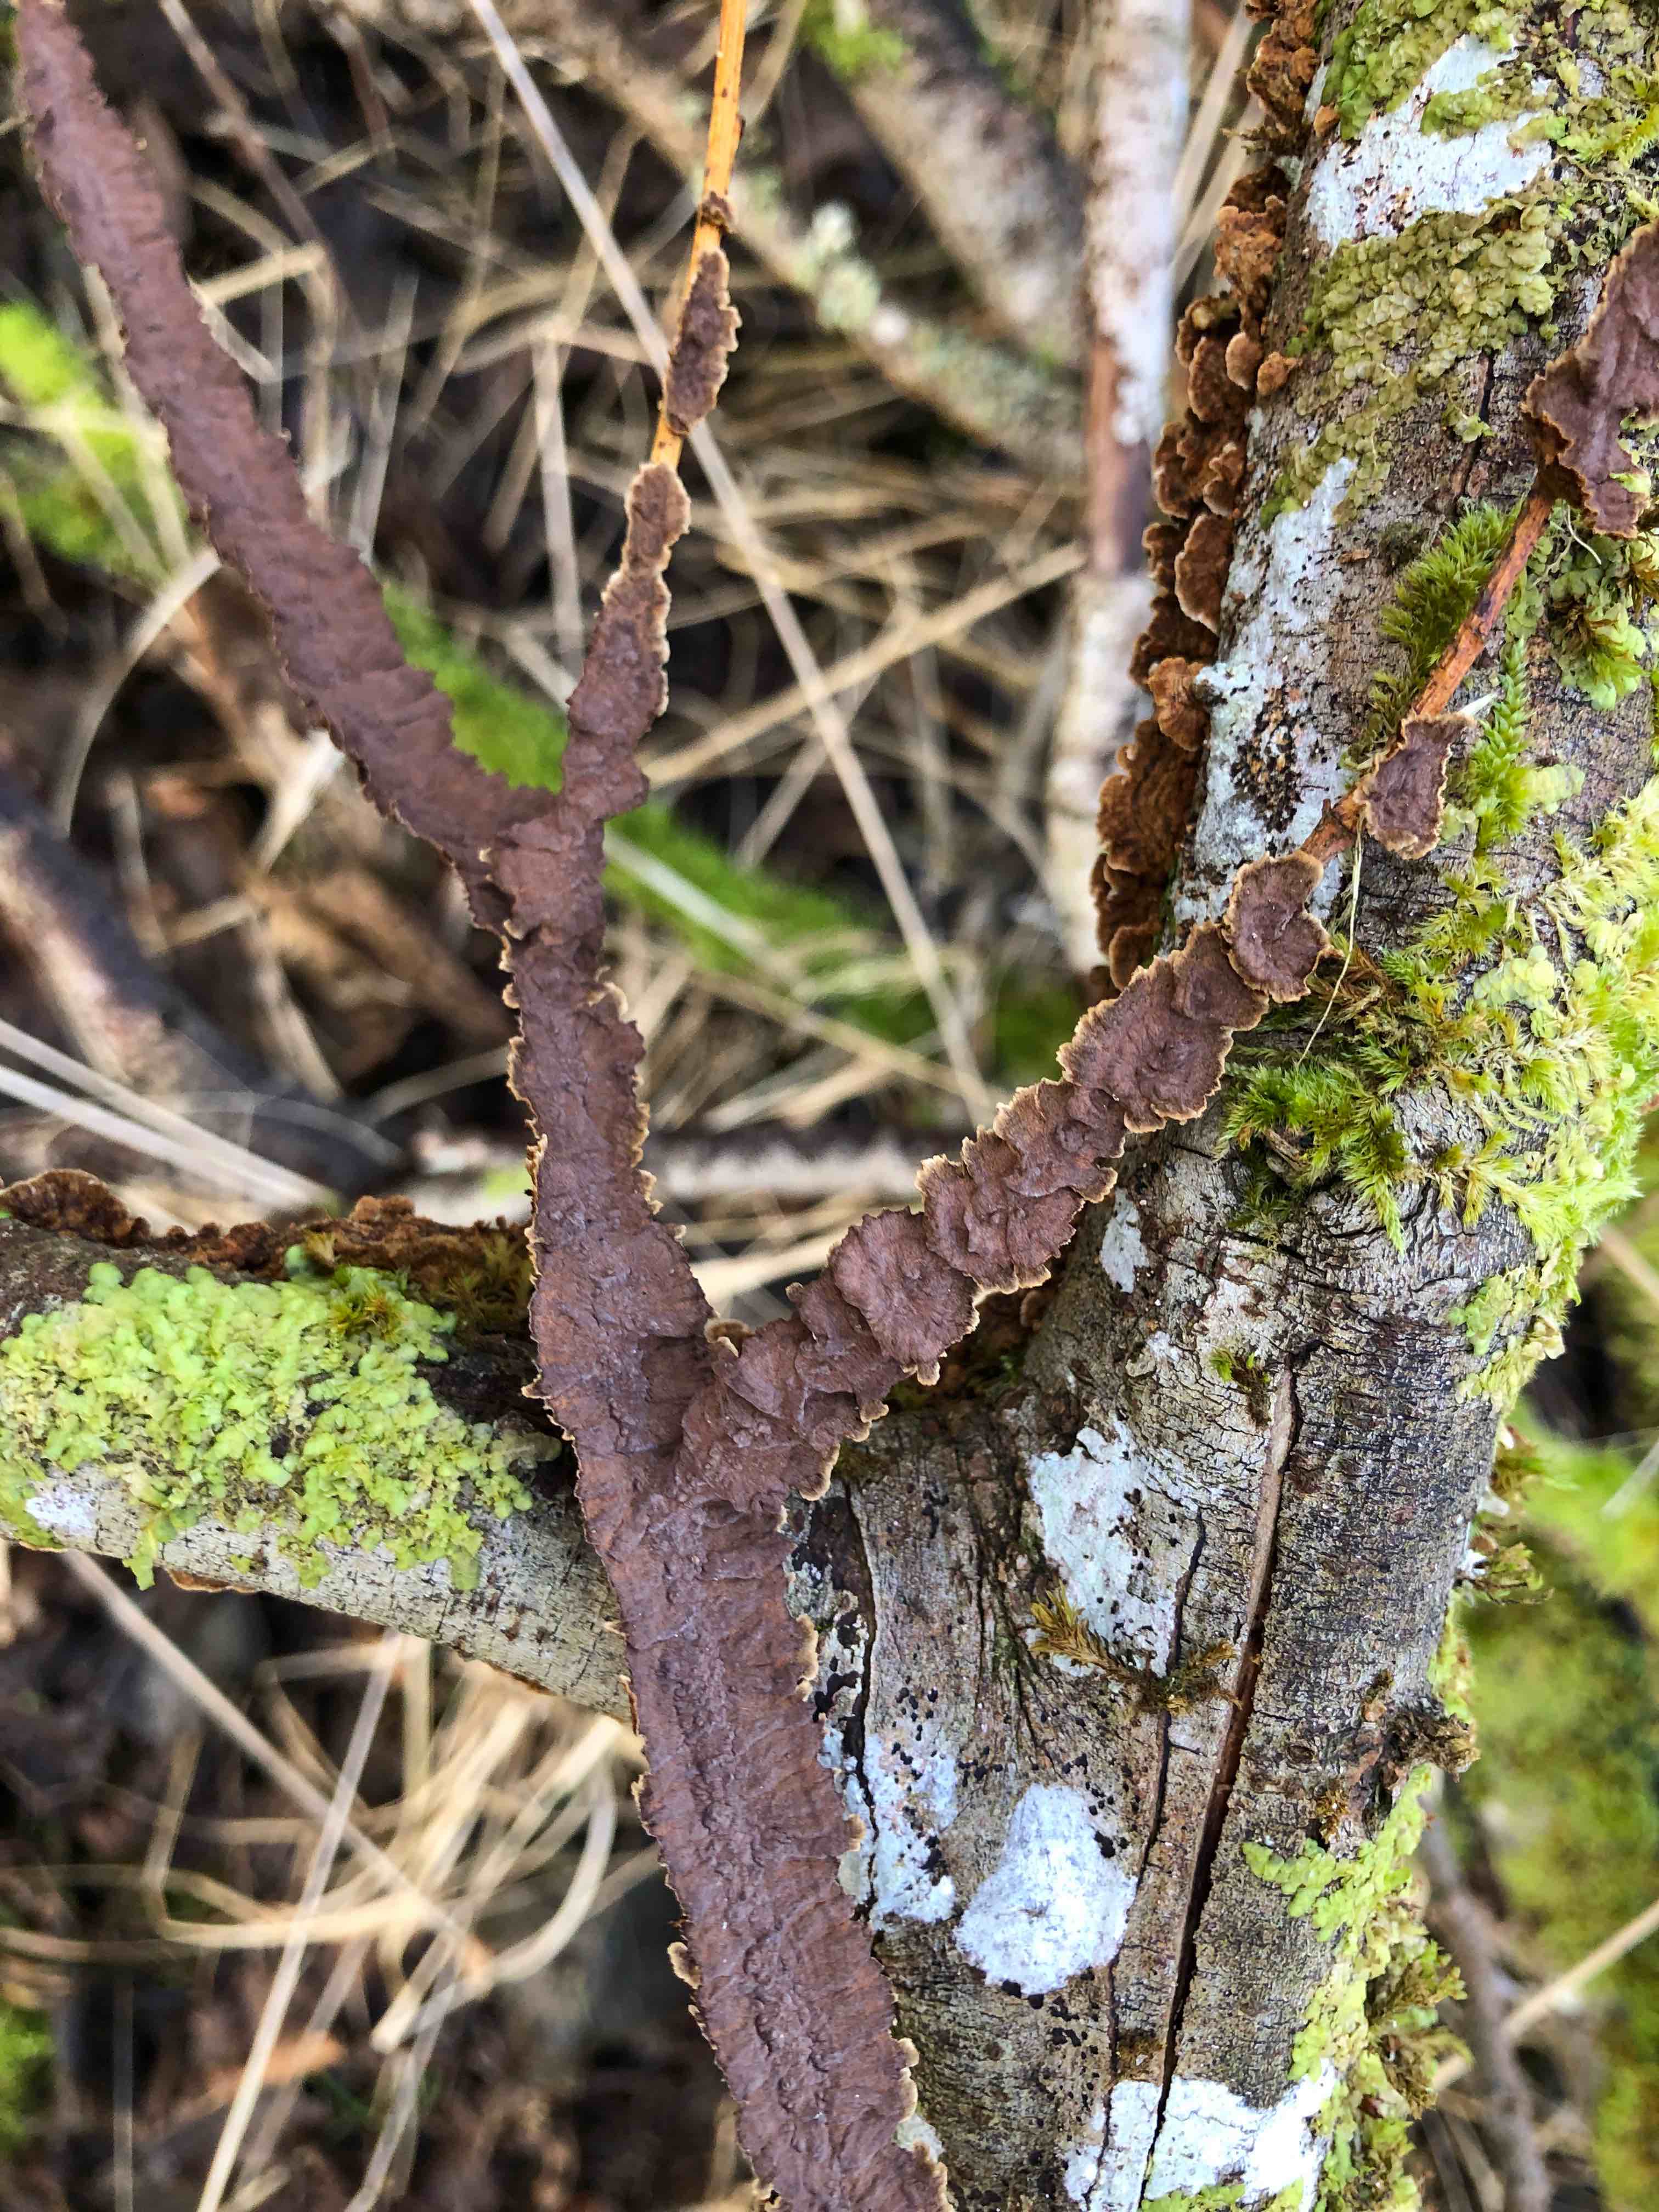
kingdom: Fungi
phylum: Basidiomycota
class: Agaricomycetes
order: Hymenochaetales
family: Hymenochaetaceae
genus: Hydnoporia
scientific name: Hydnoporia tabacina
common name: tobaksbrun ruslædersvamp
